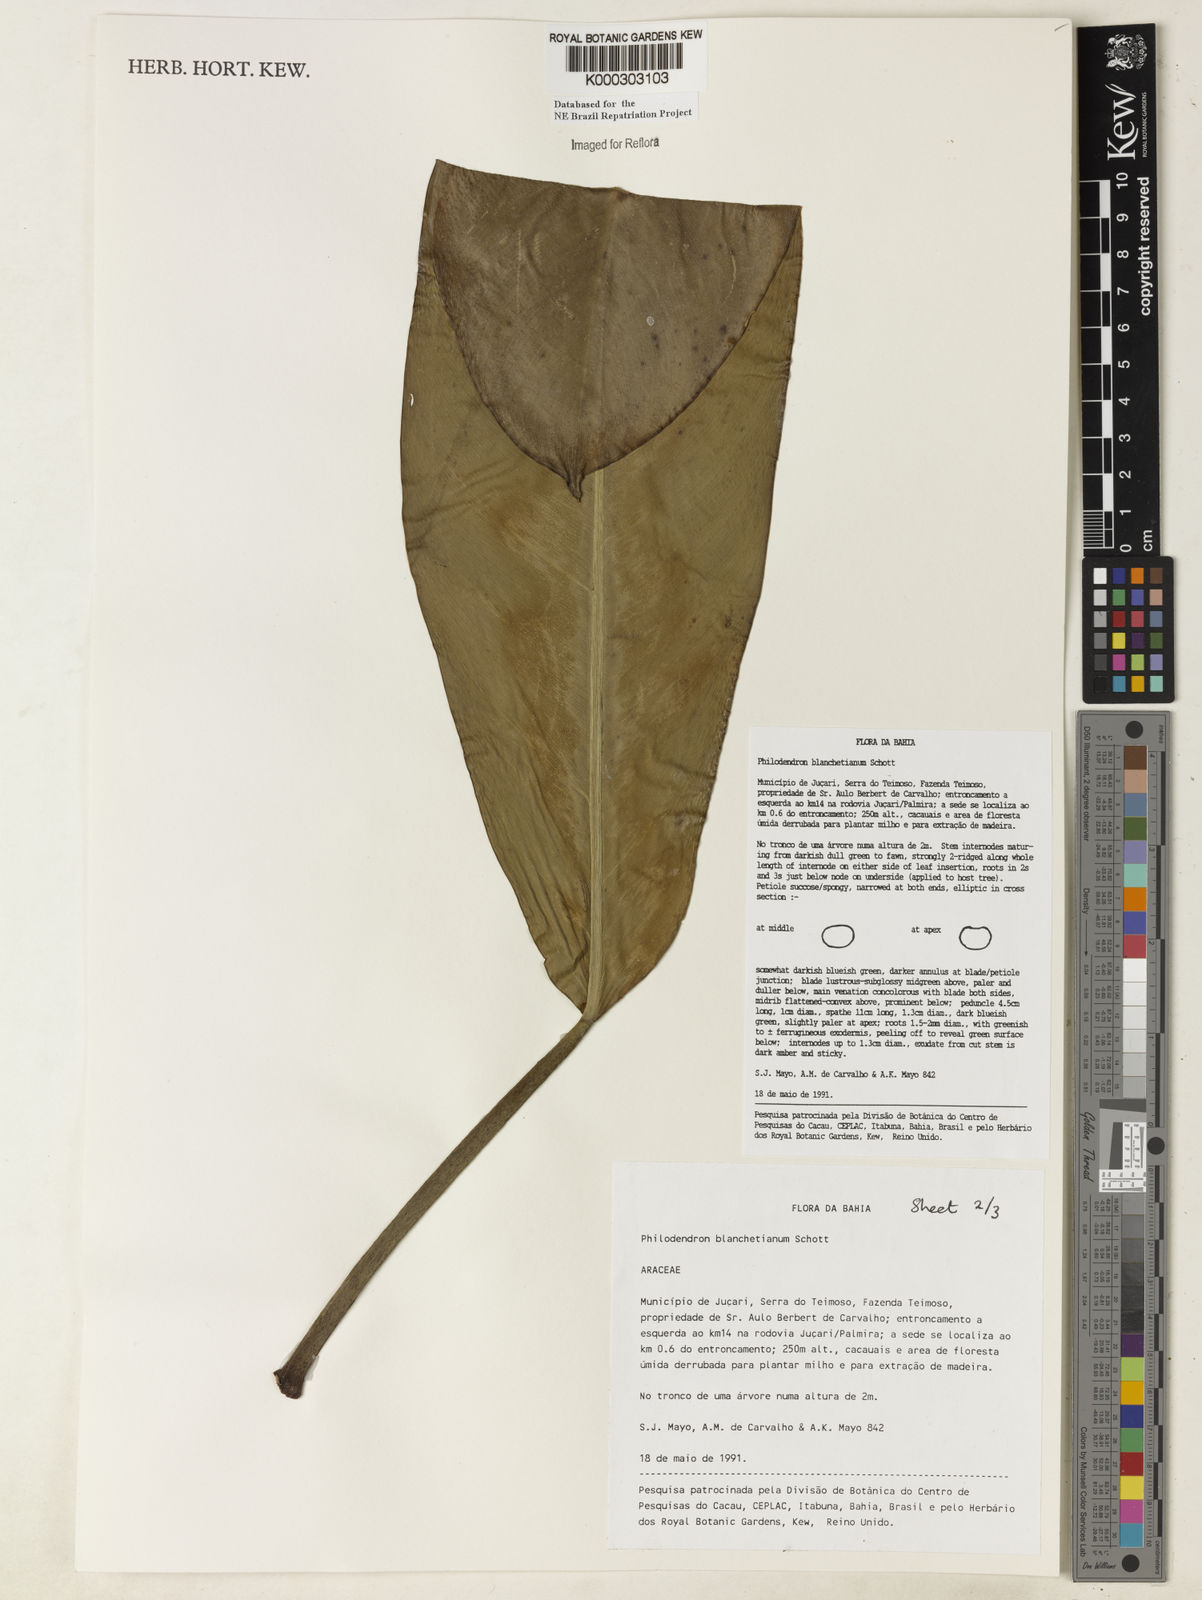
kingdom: Plantae
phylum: Tracheophyta
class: Liliopsida
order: Alismatales
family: Araceae
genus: Philodendron
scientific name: Philodendron blanchetianum
